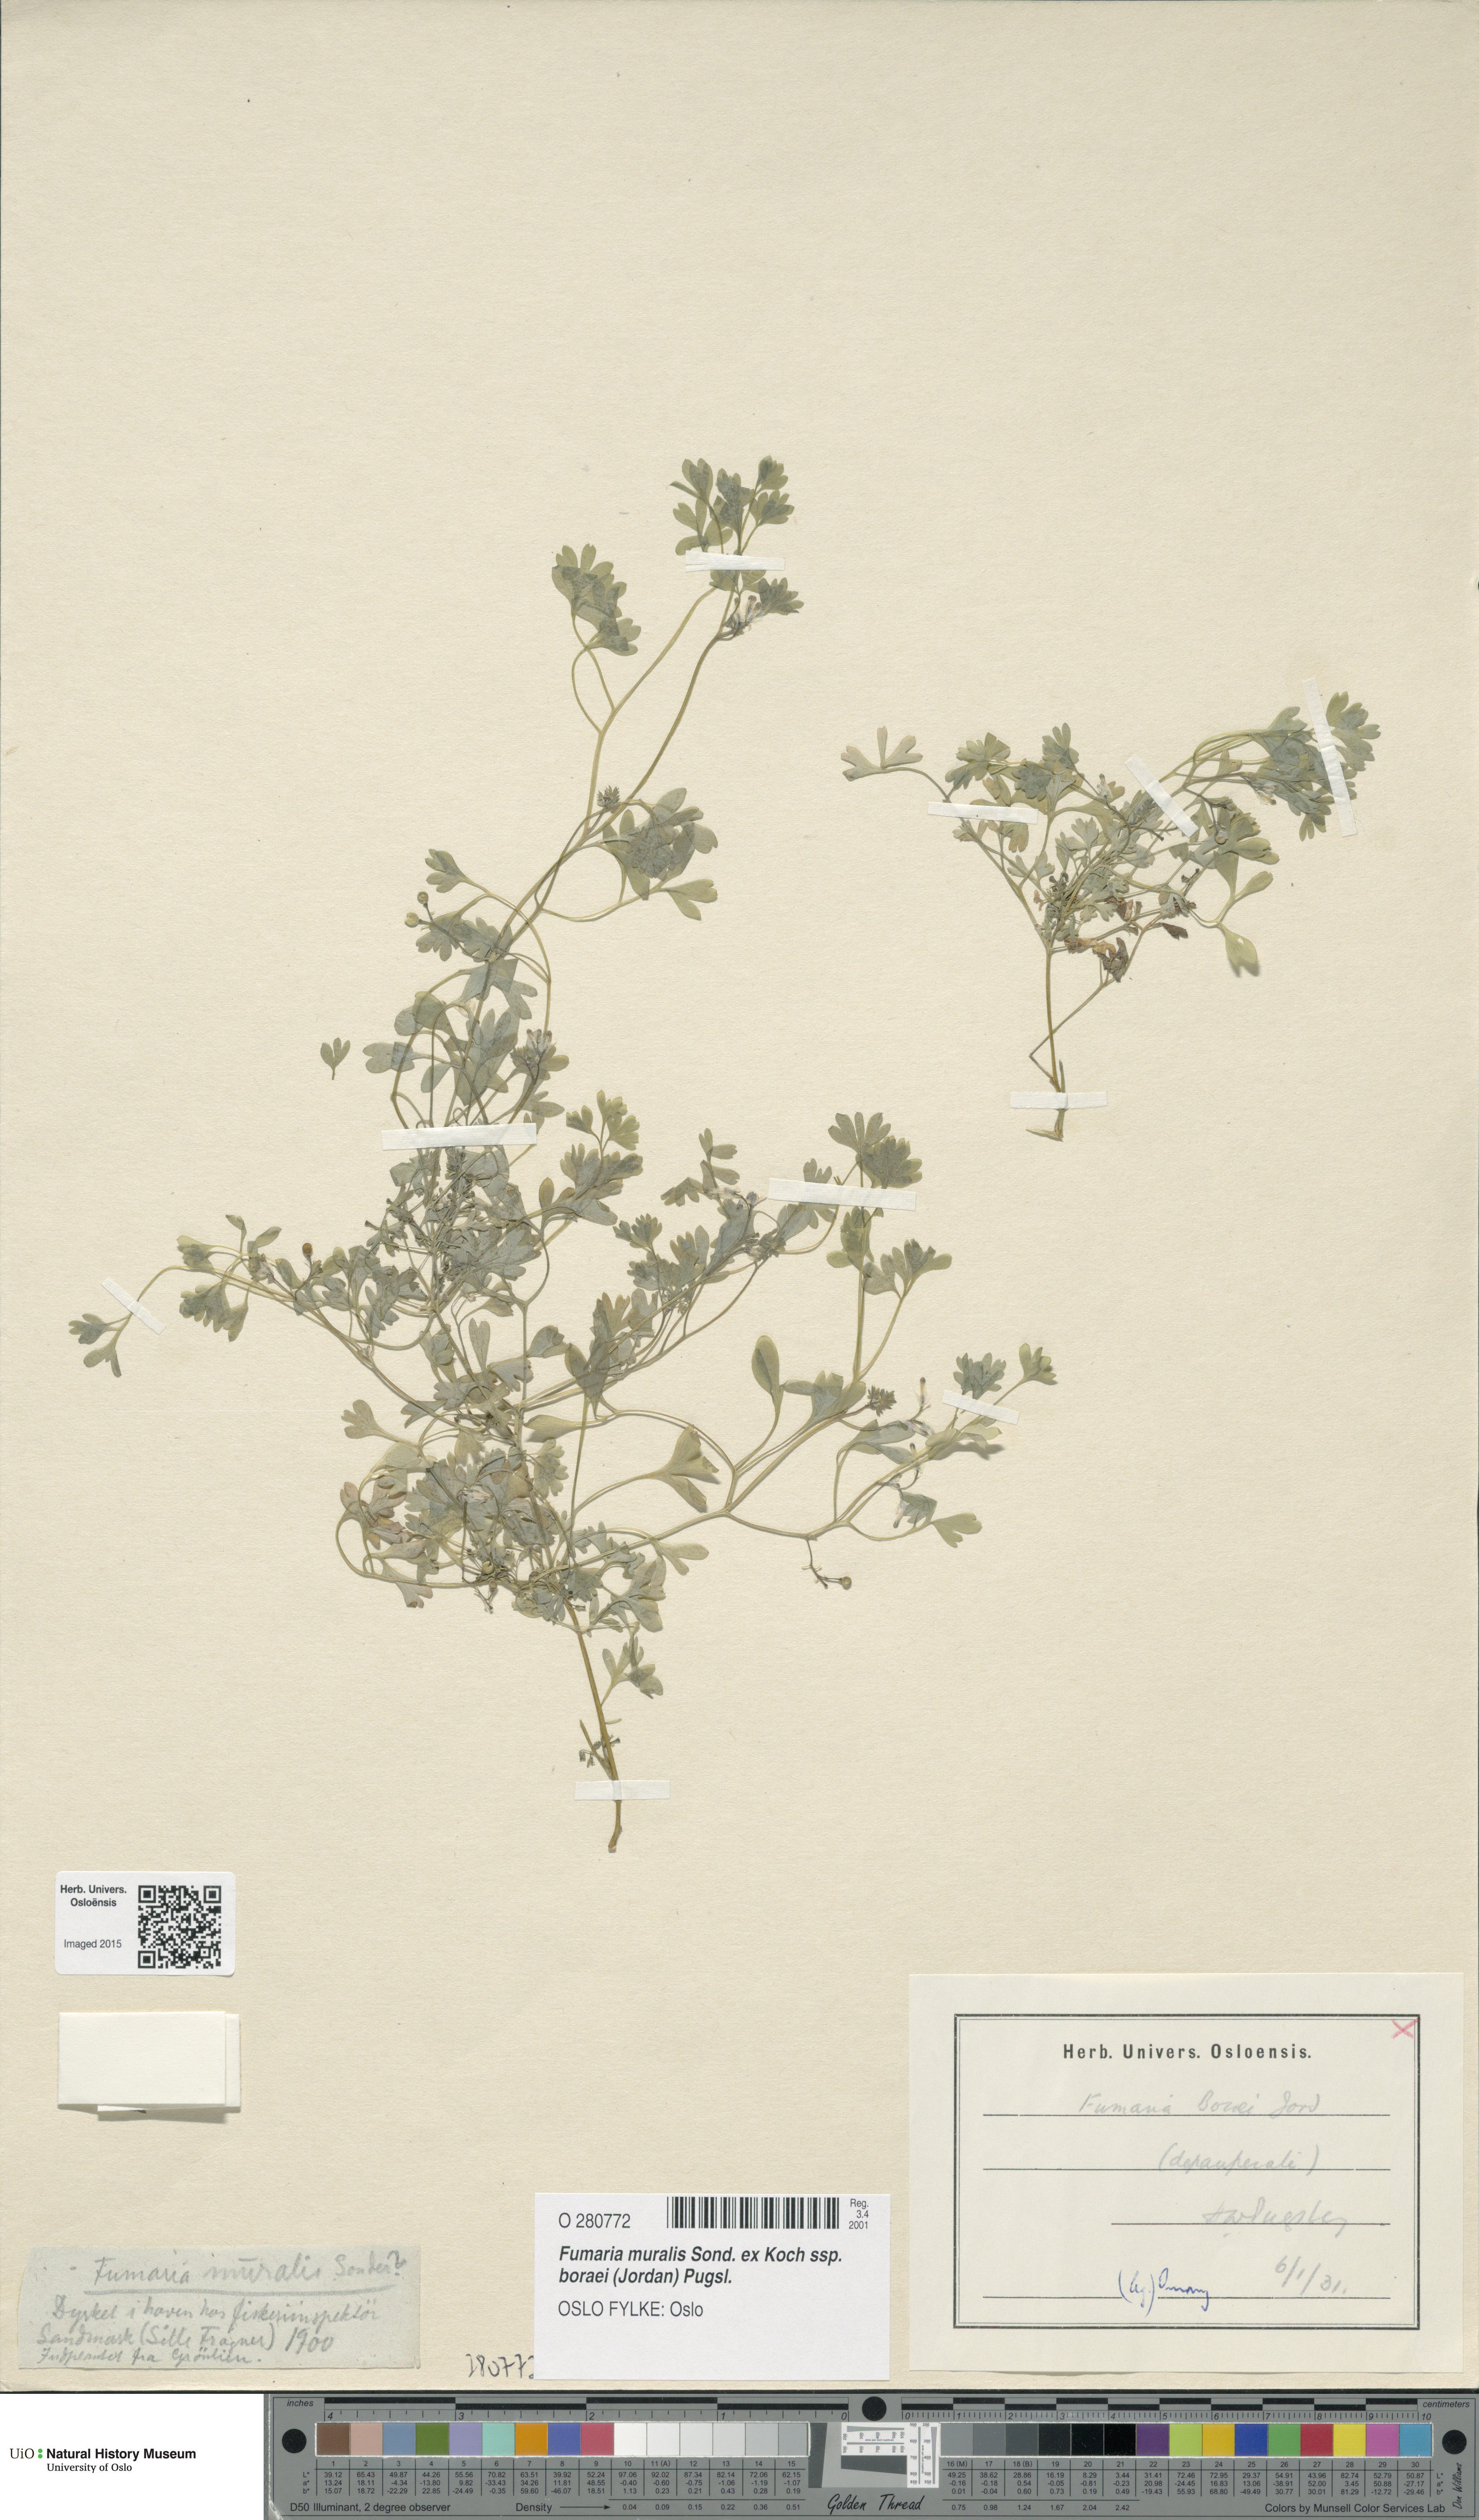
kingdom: Plantae
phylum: Tracheophyta
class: Magnoliopsida
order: Ranunculales
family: Papaveraceae
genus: Fumaria
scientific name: Fumaria muralis
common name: Common ramping-fumitory
